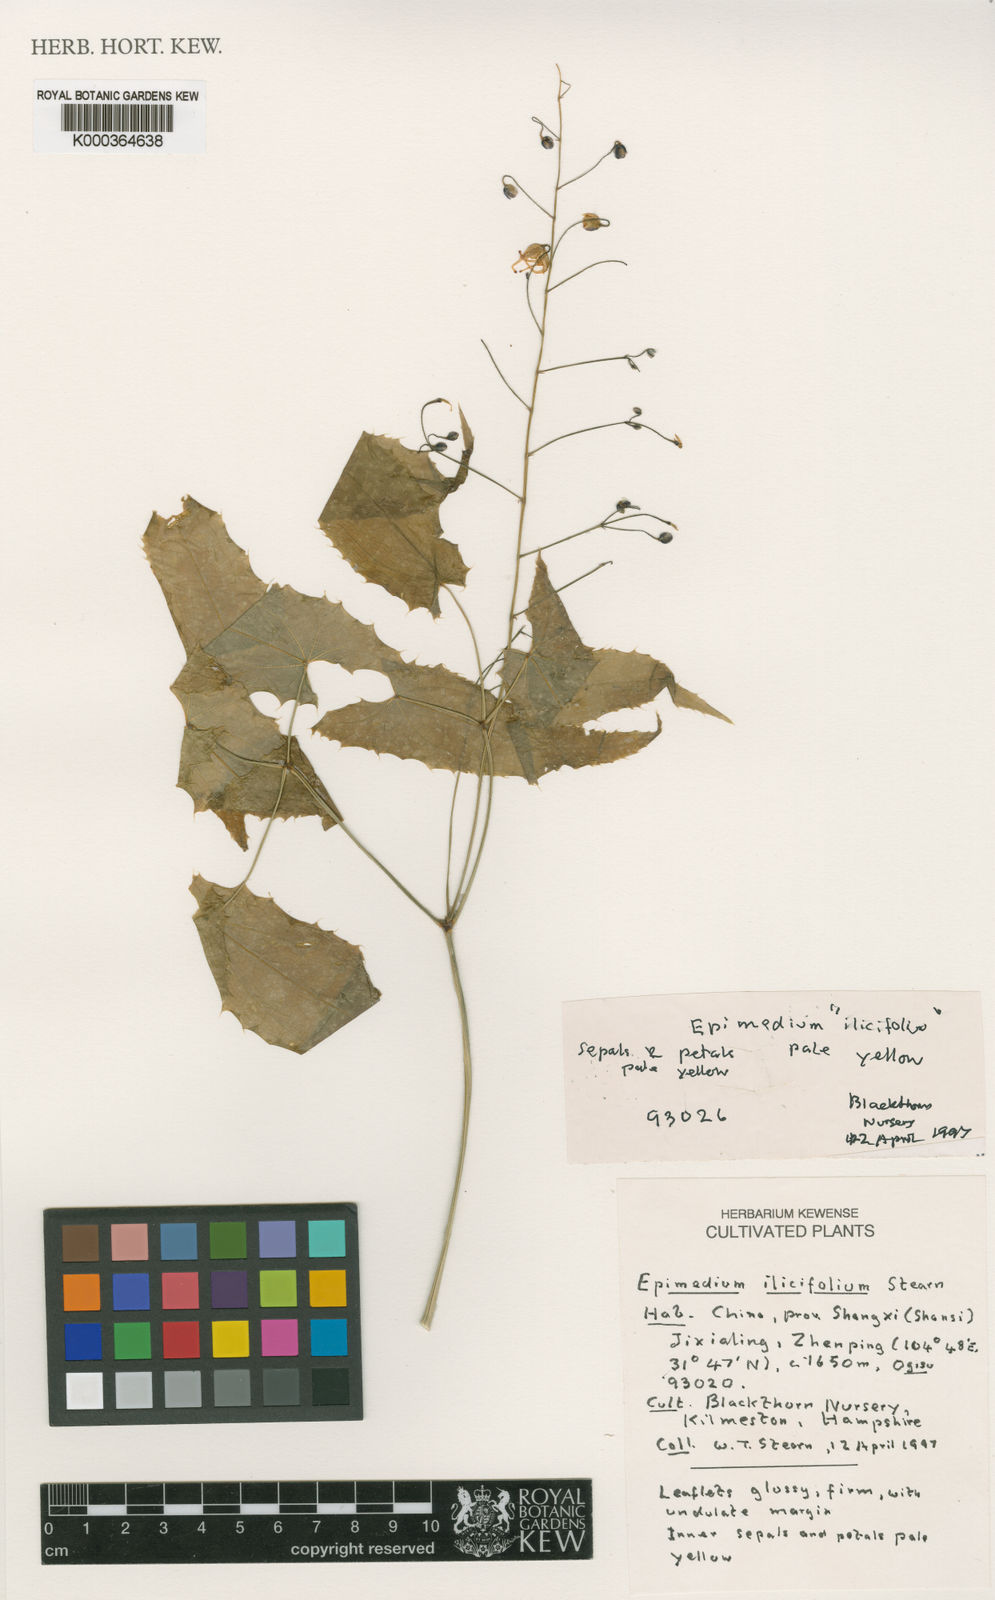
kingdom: Plantae
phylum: Tracheophyta
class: Magnoliopsida
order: Ranunculales
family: Berberidaceae
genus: Epimedium
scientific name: Epimedium ilicifolium
